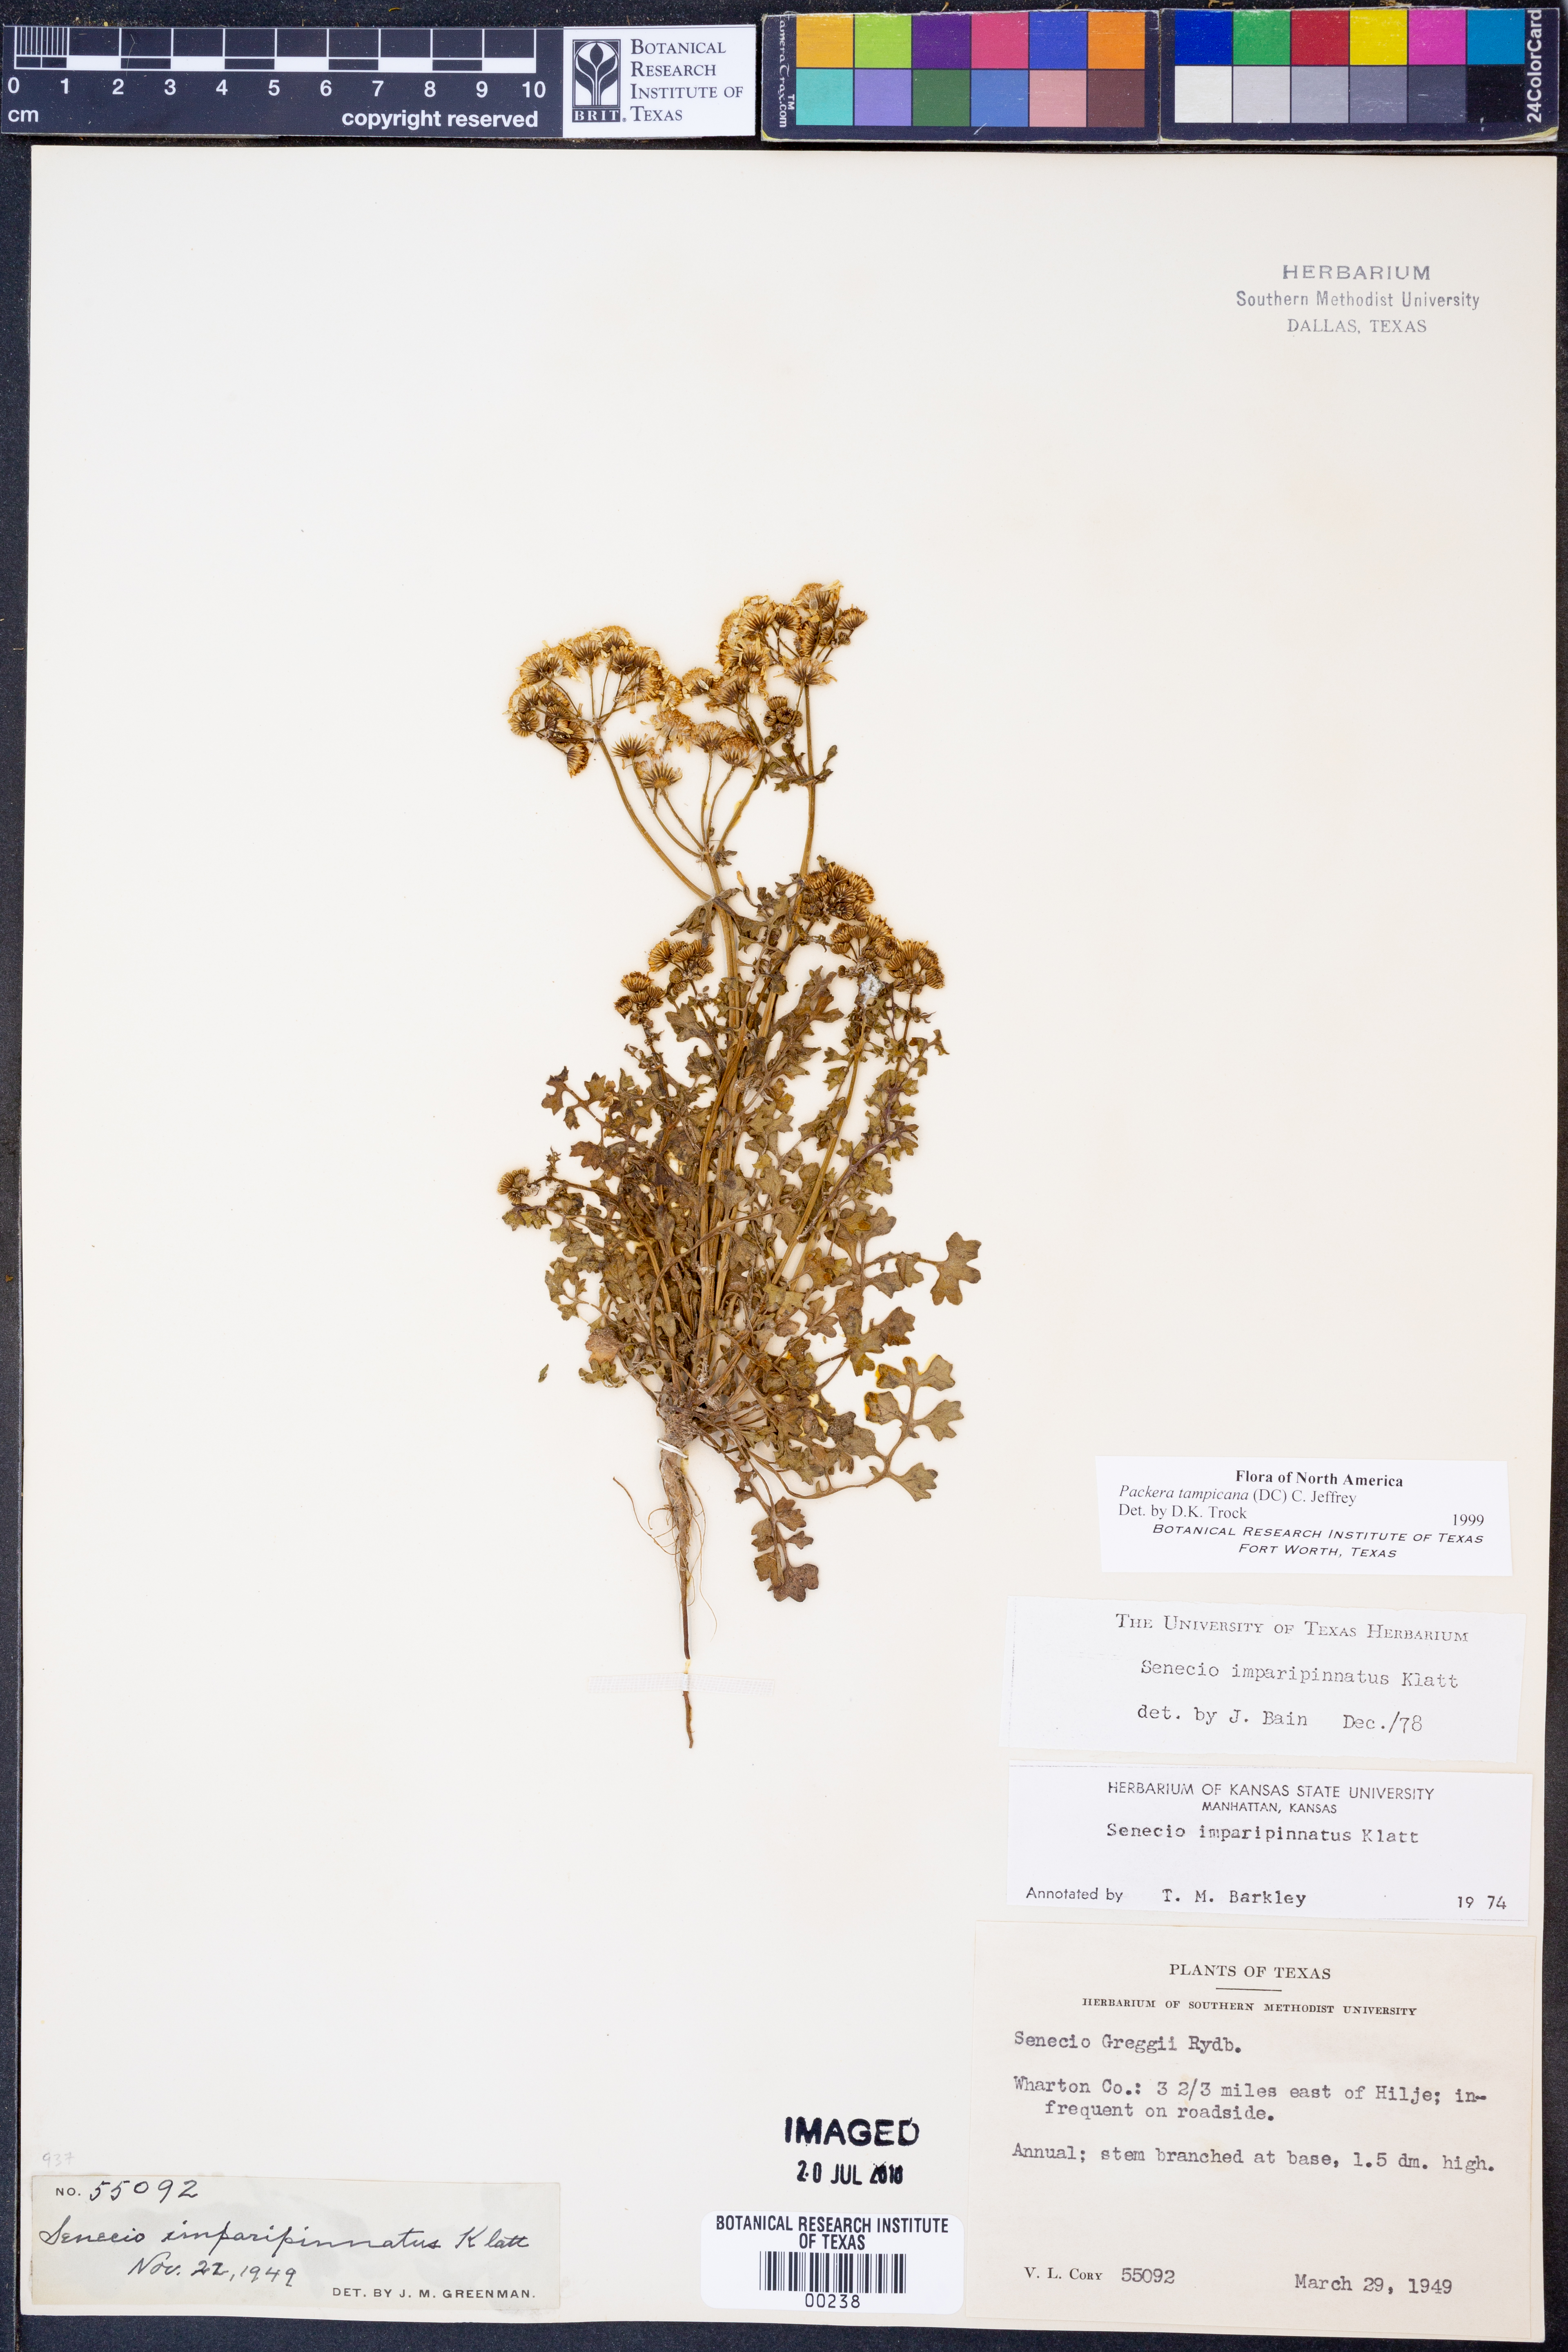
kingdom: Plantae
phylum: Tracheophyta
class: Magnoliopsida
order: Asterales
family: Asteraceae
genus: Packera
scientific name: Packera tampicana
